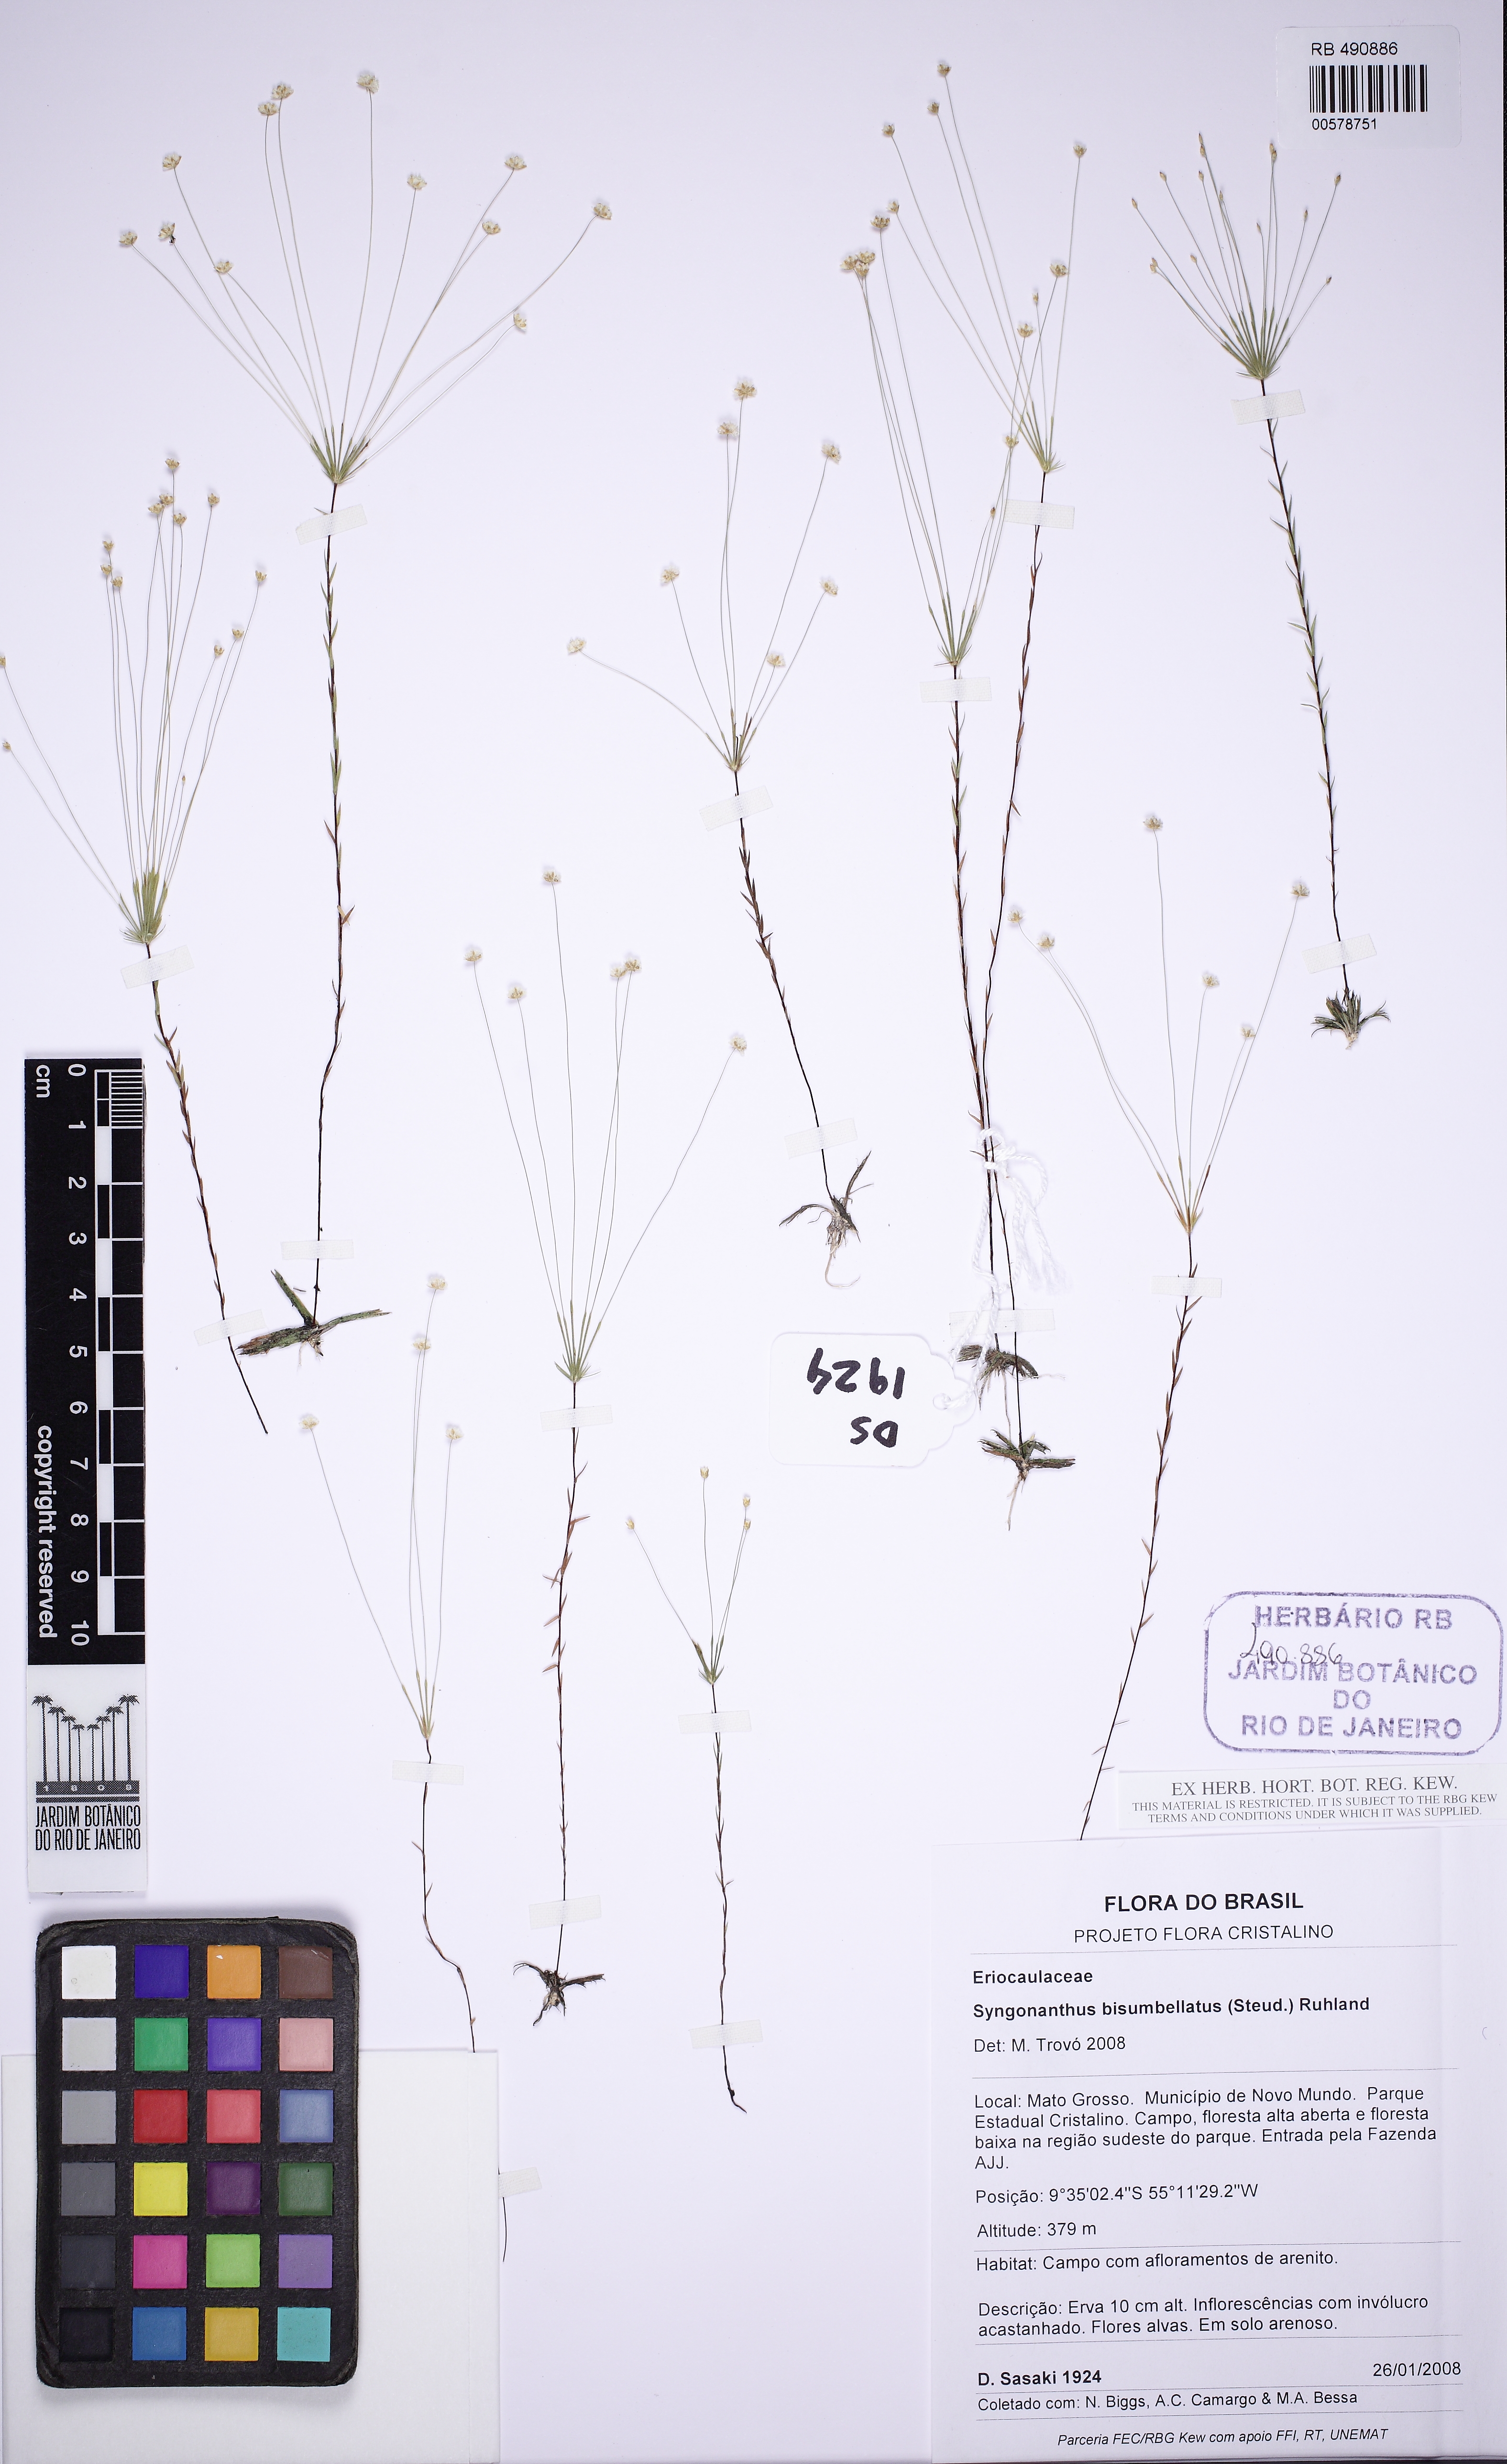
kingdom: Plantae
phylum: Tracheophyta
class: Liliopsida
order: Poales
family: Eriocaulaceae
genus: Syngonanthus
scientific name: Syngonanthus bisumbellatus
